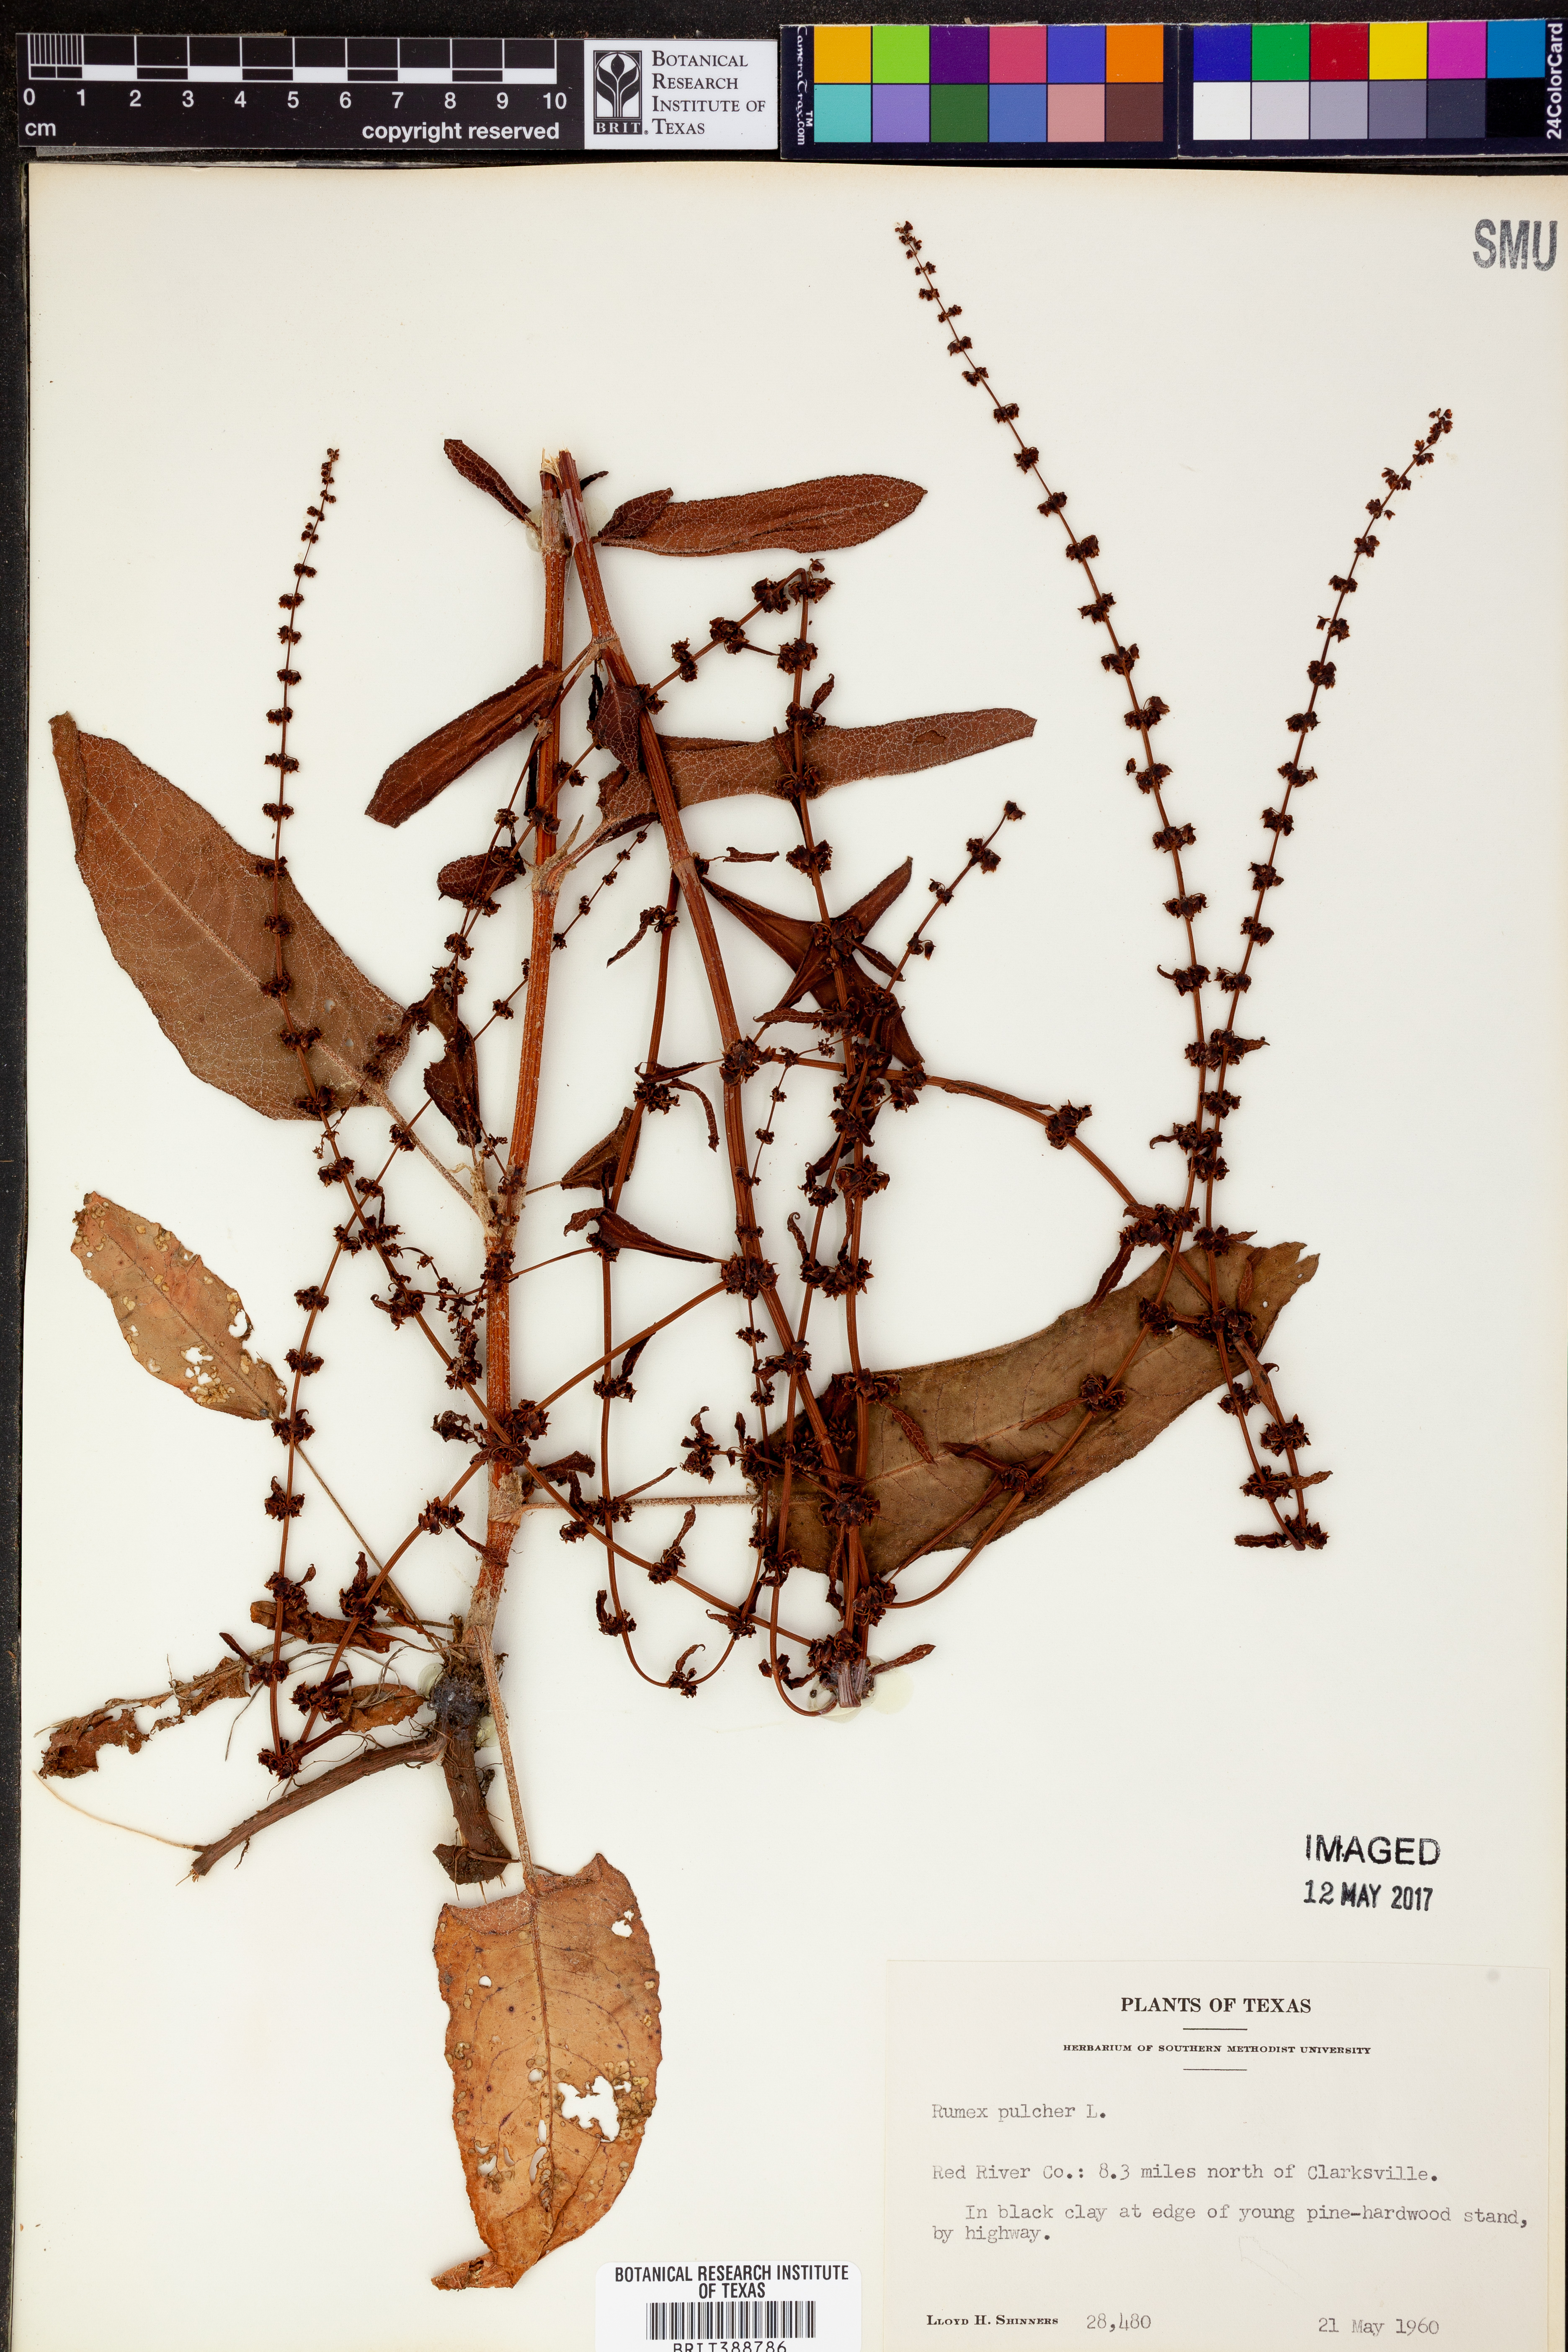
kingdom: Plantae
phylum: Tracheophyta
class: Magnoliopsida
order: Caryophyllales
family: Polygonaceae
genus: Rumex
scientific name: Rumex pulcher
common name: Fiddle dock
